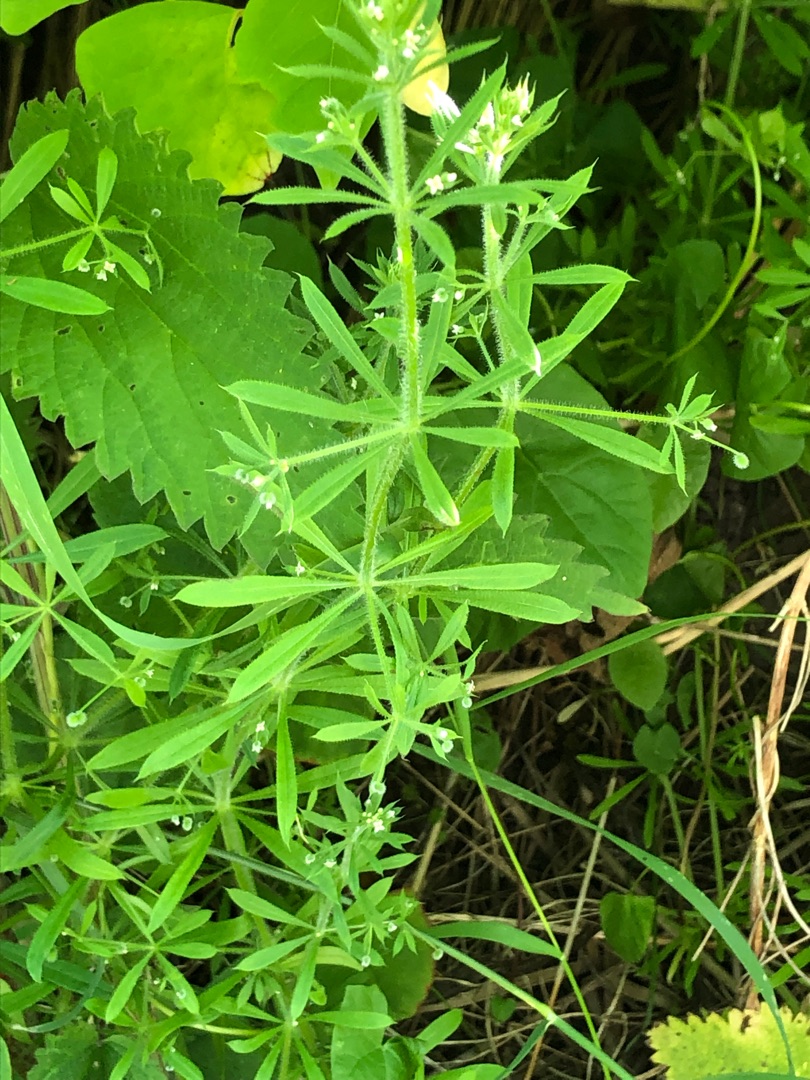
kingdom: Plantae
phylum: Tracheophyta
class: Magnoliopsida
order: Gentianales
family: Rubiaceae
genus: Galium
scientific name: Galium aparine
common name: Burre-snerre
